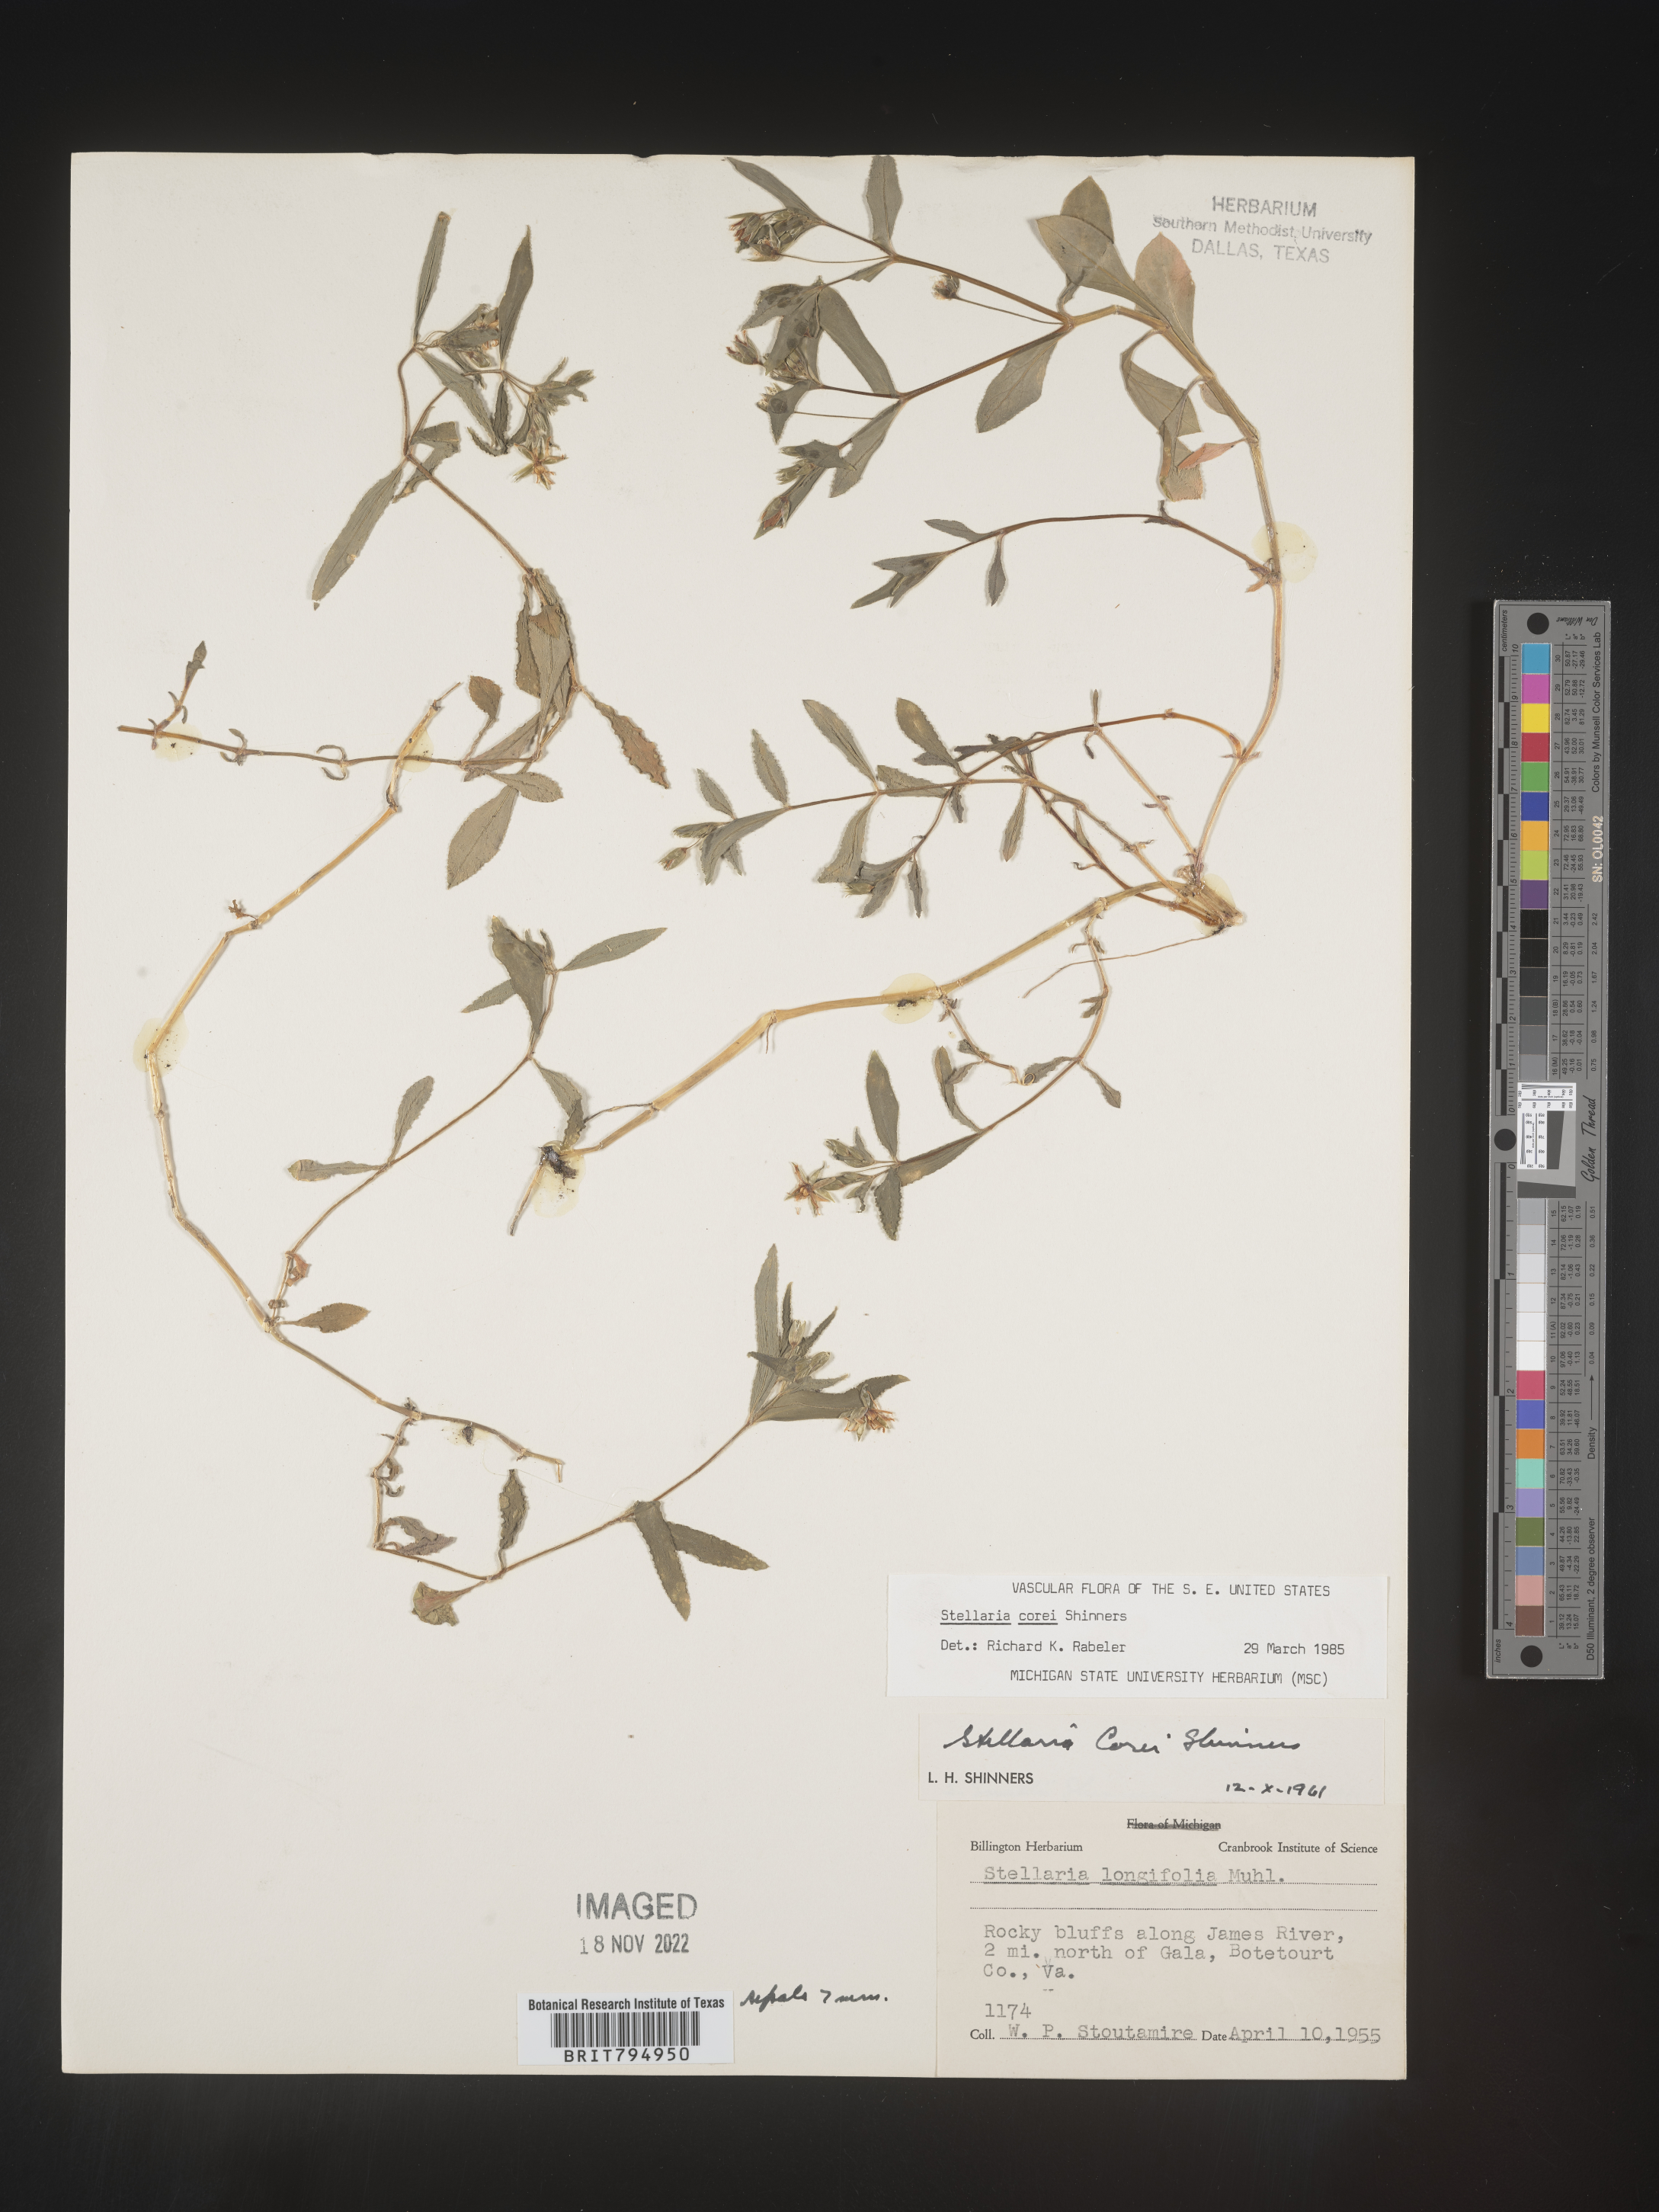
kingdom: Plantae
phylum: Tracheophyta
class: Magnoliopsida
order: Caryophyllales
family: Caryophyllaceae
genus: Stellaria
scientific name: Stellaria corei
